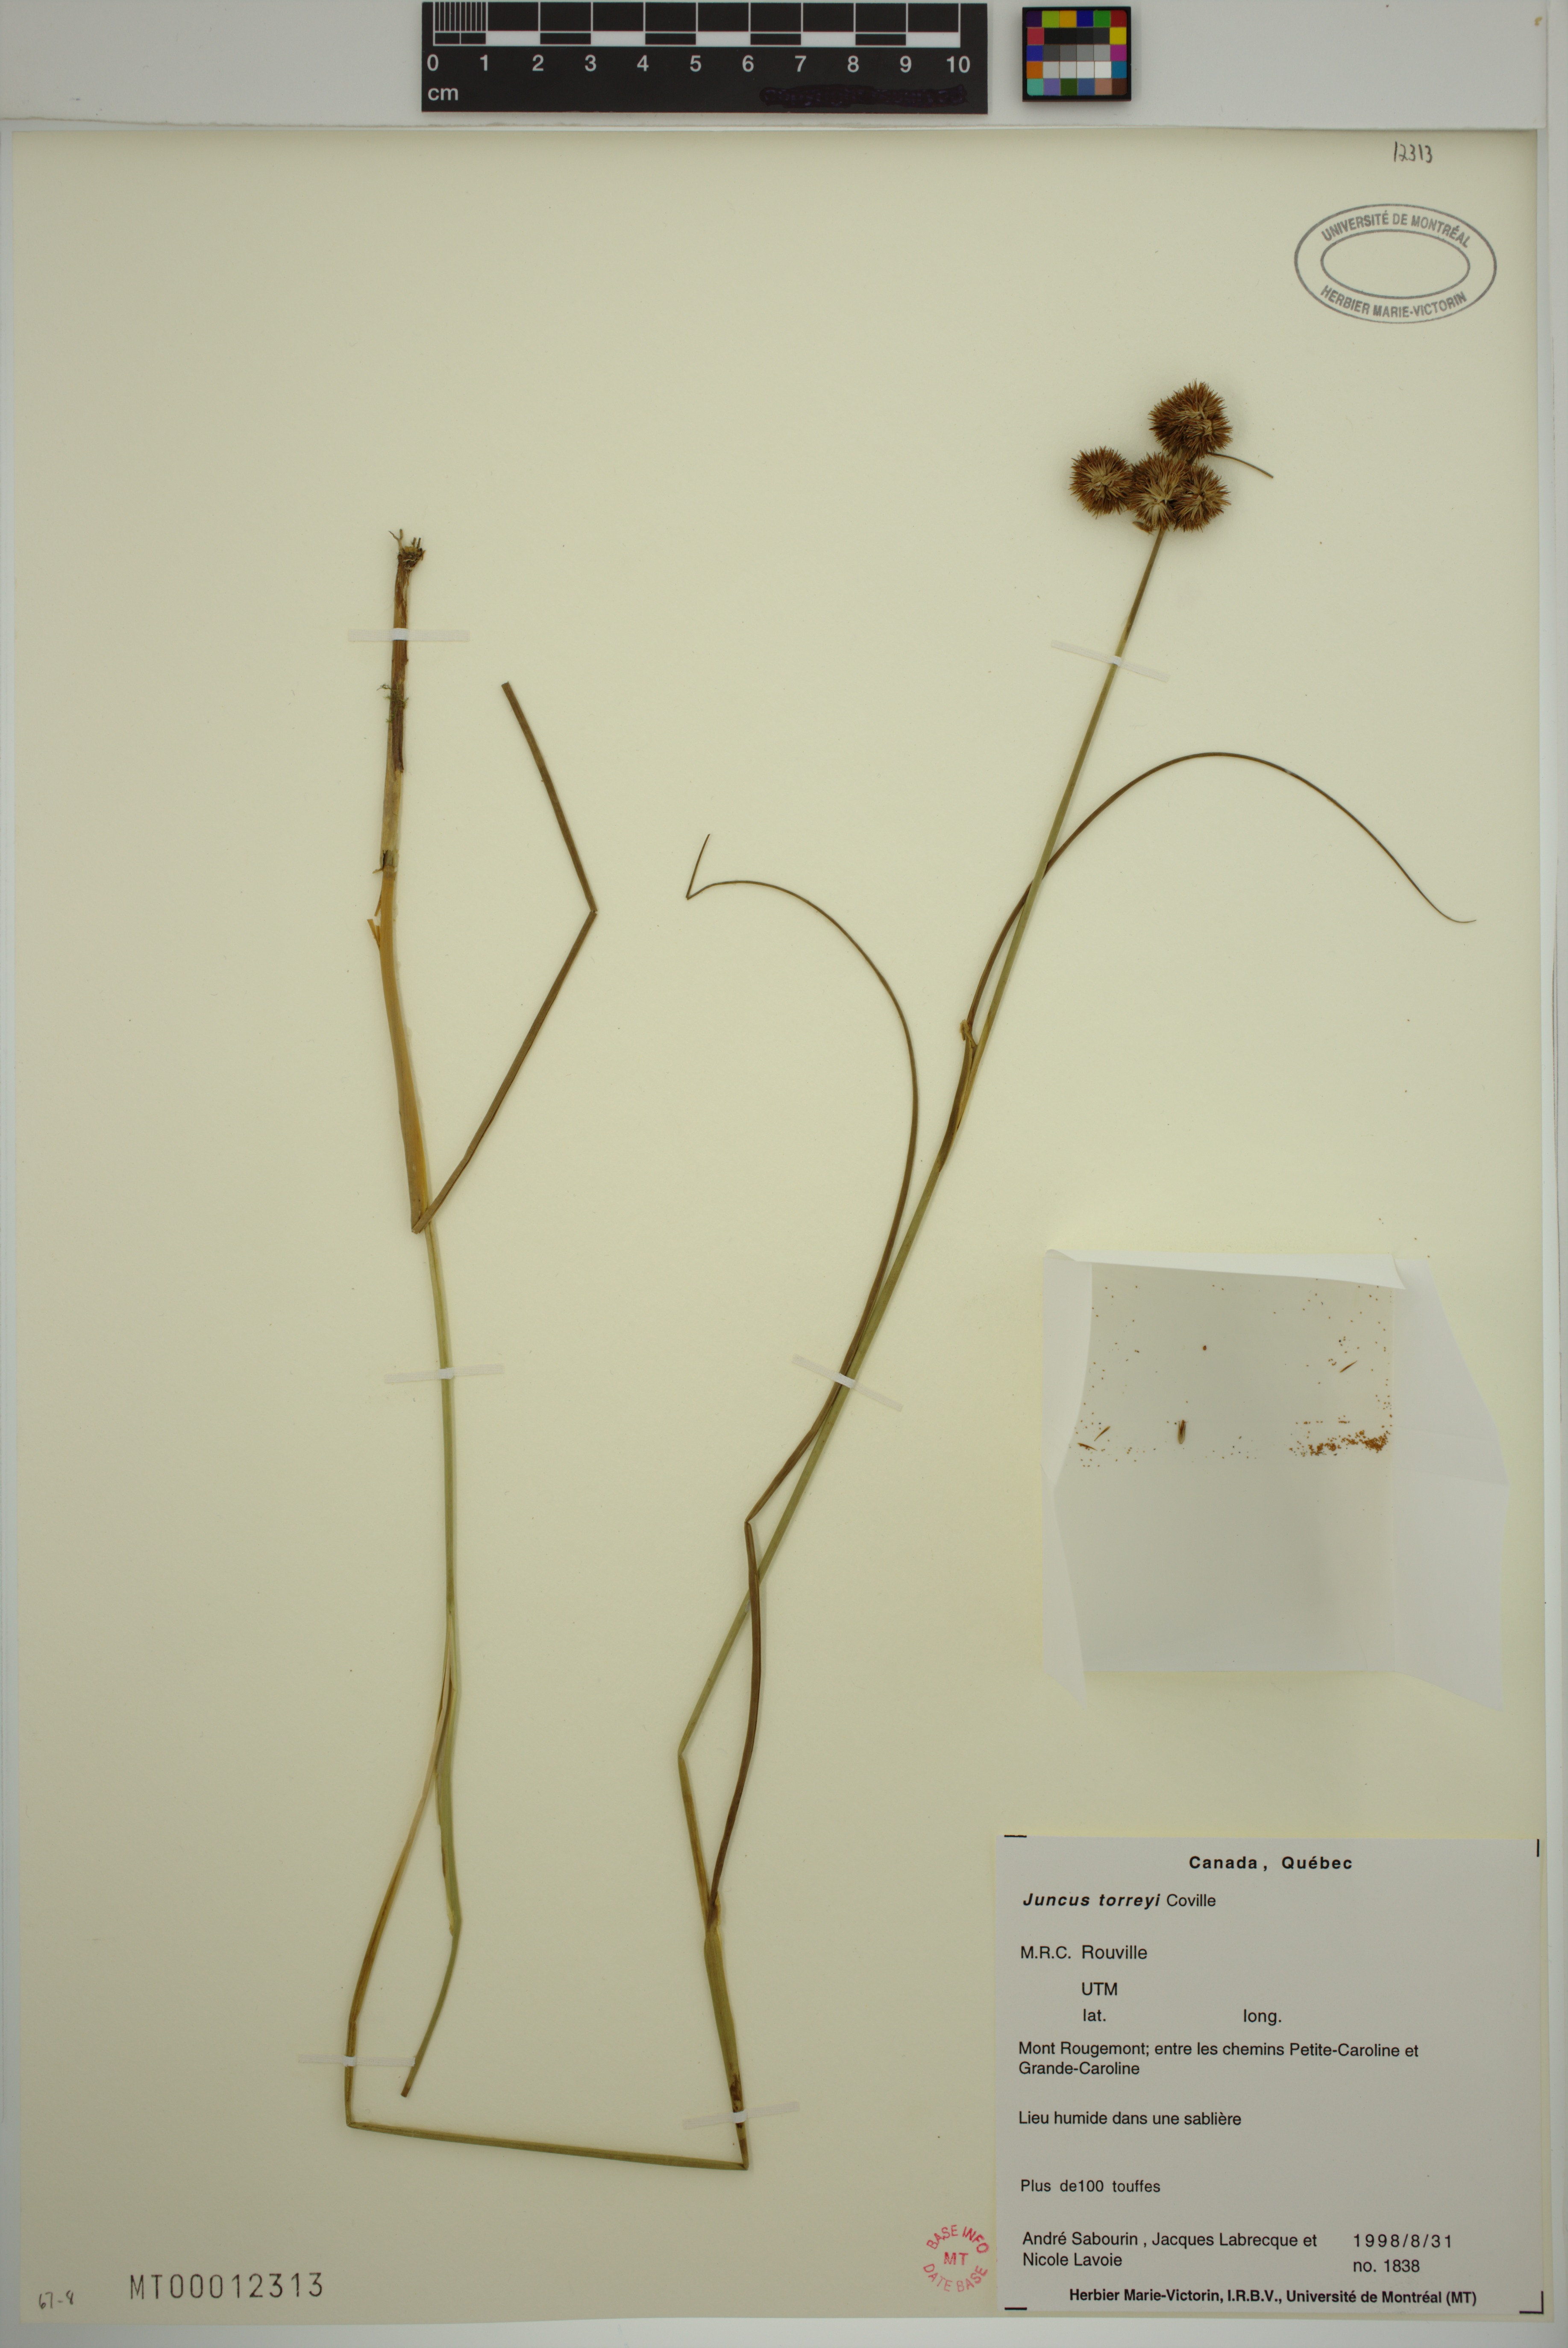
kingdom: Plantae
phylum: Tracheophyta
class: Liliopsida
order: Poales
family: Juncaceae
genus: Juncus
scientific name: Juncus torreyi
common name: Torrey's rush
